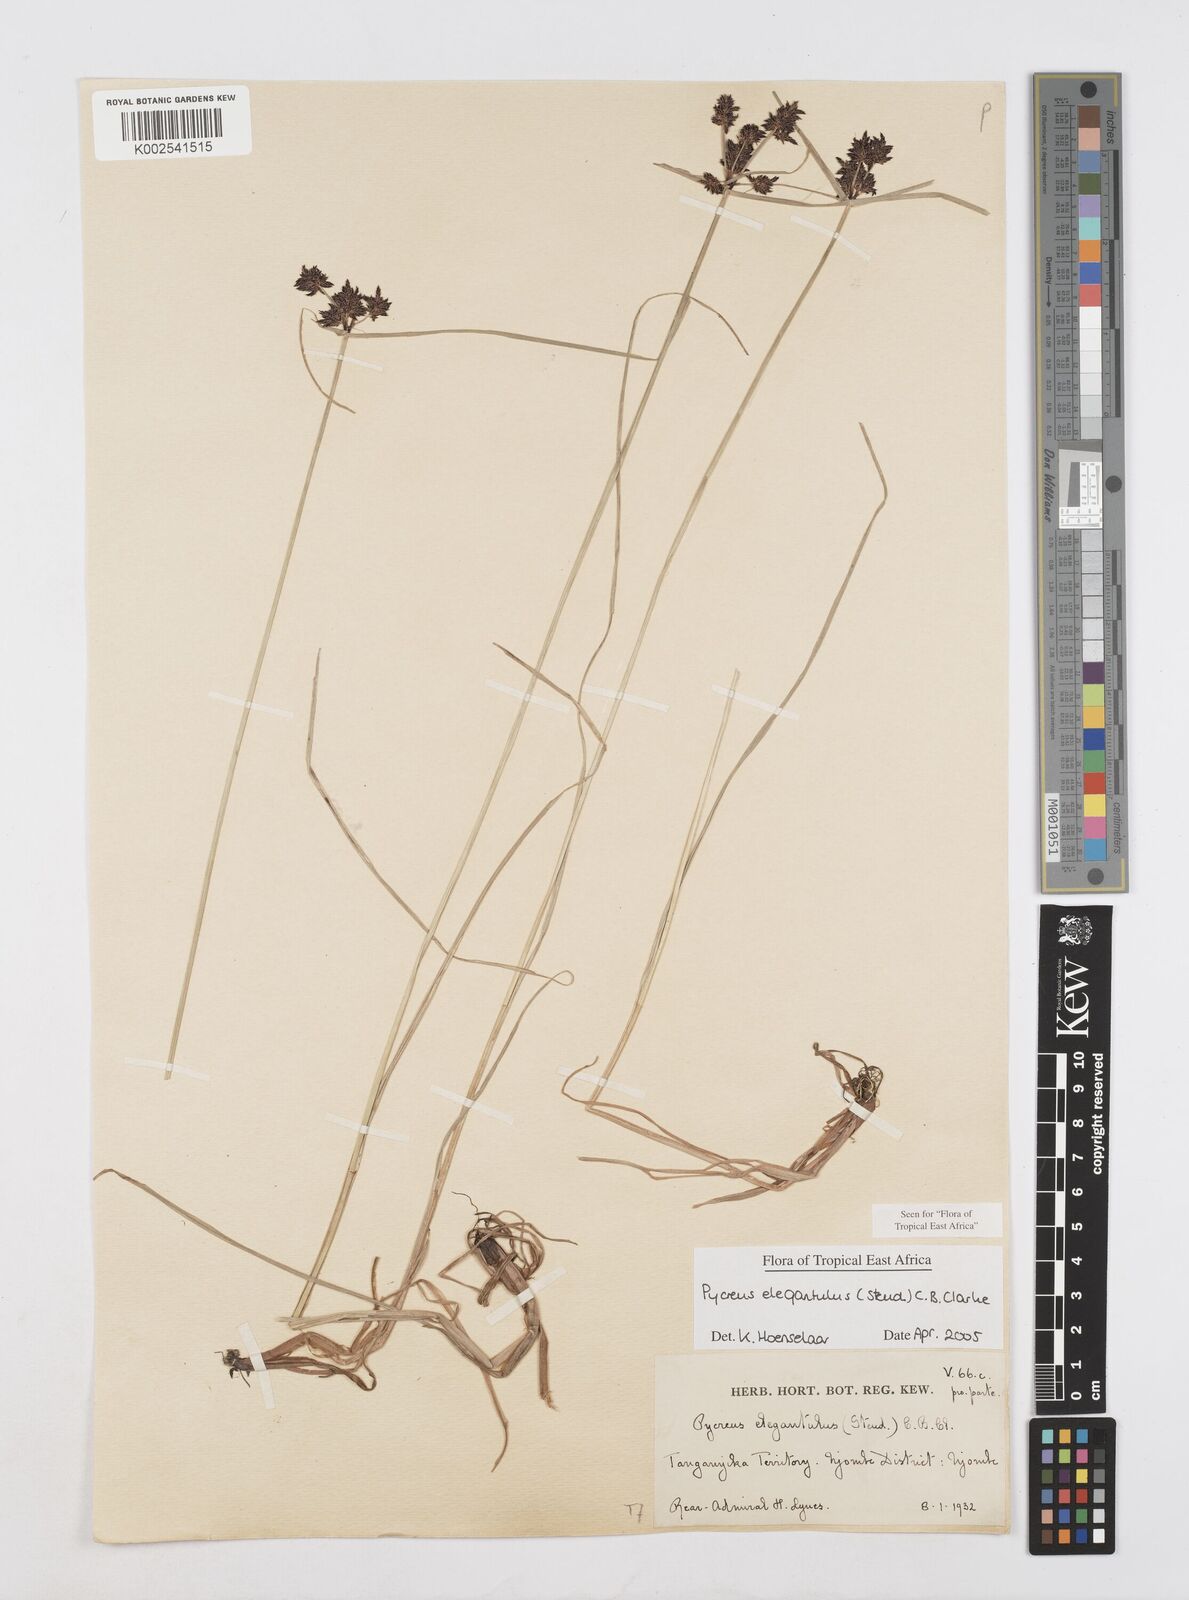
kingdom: Plantae
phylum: Tracheophyta
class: Liliopsida
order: Poales
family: Cyperaceae
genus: Cyperus
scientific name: Cyperus elegantulus
